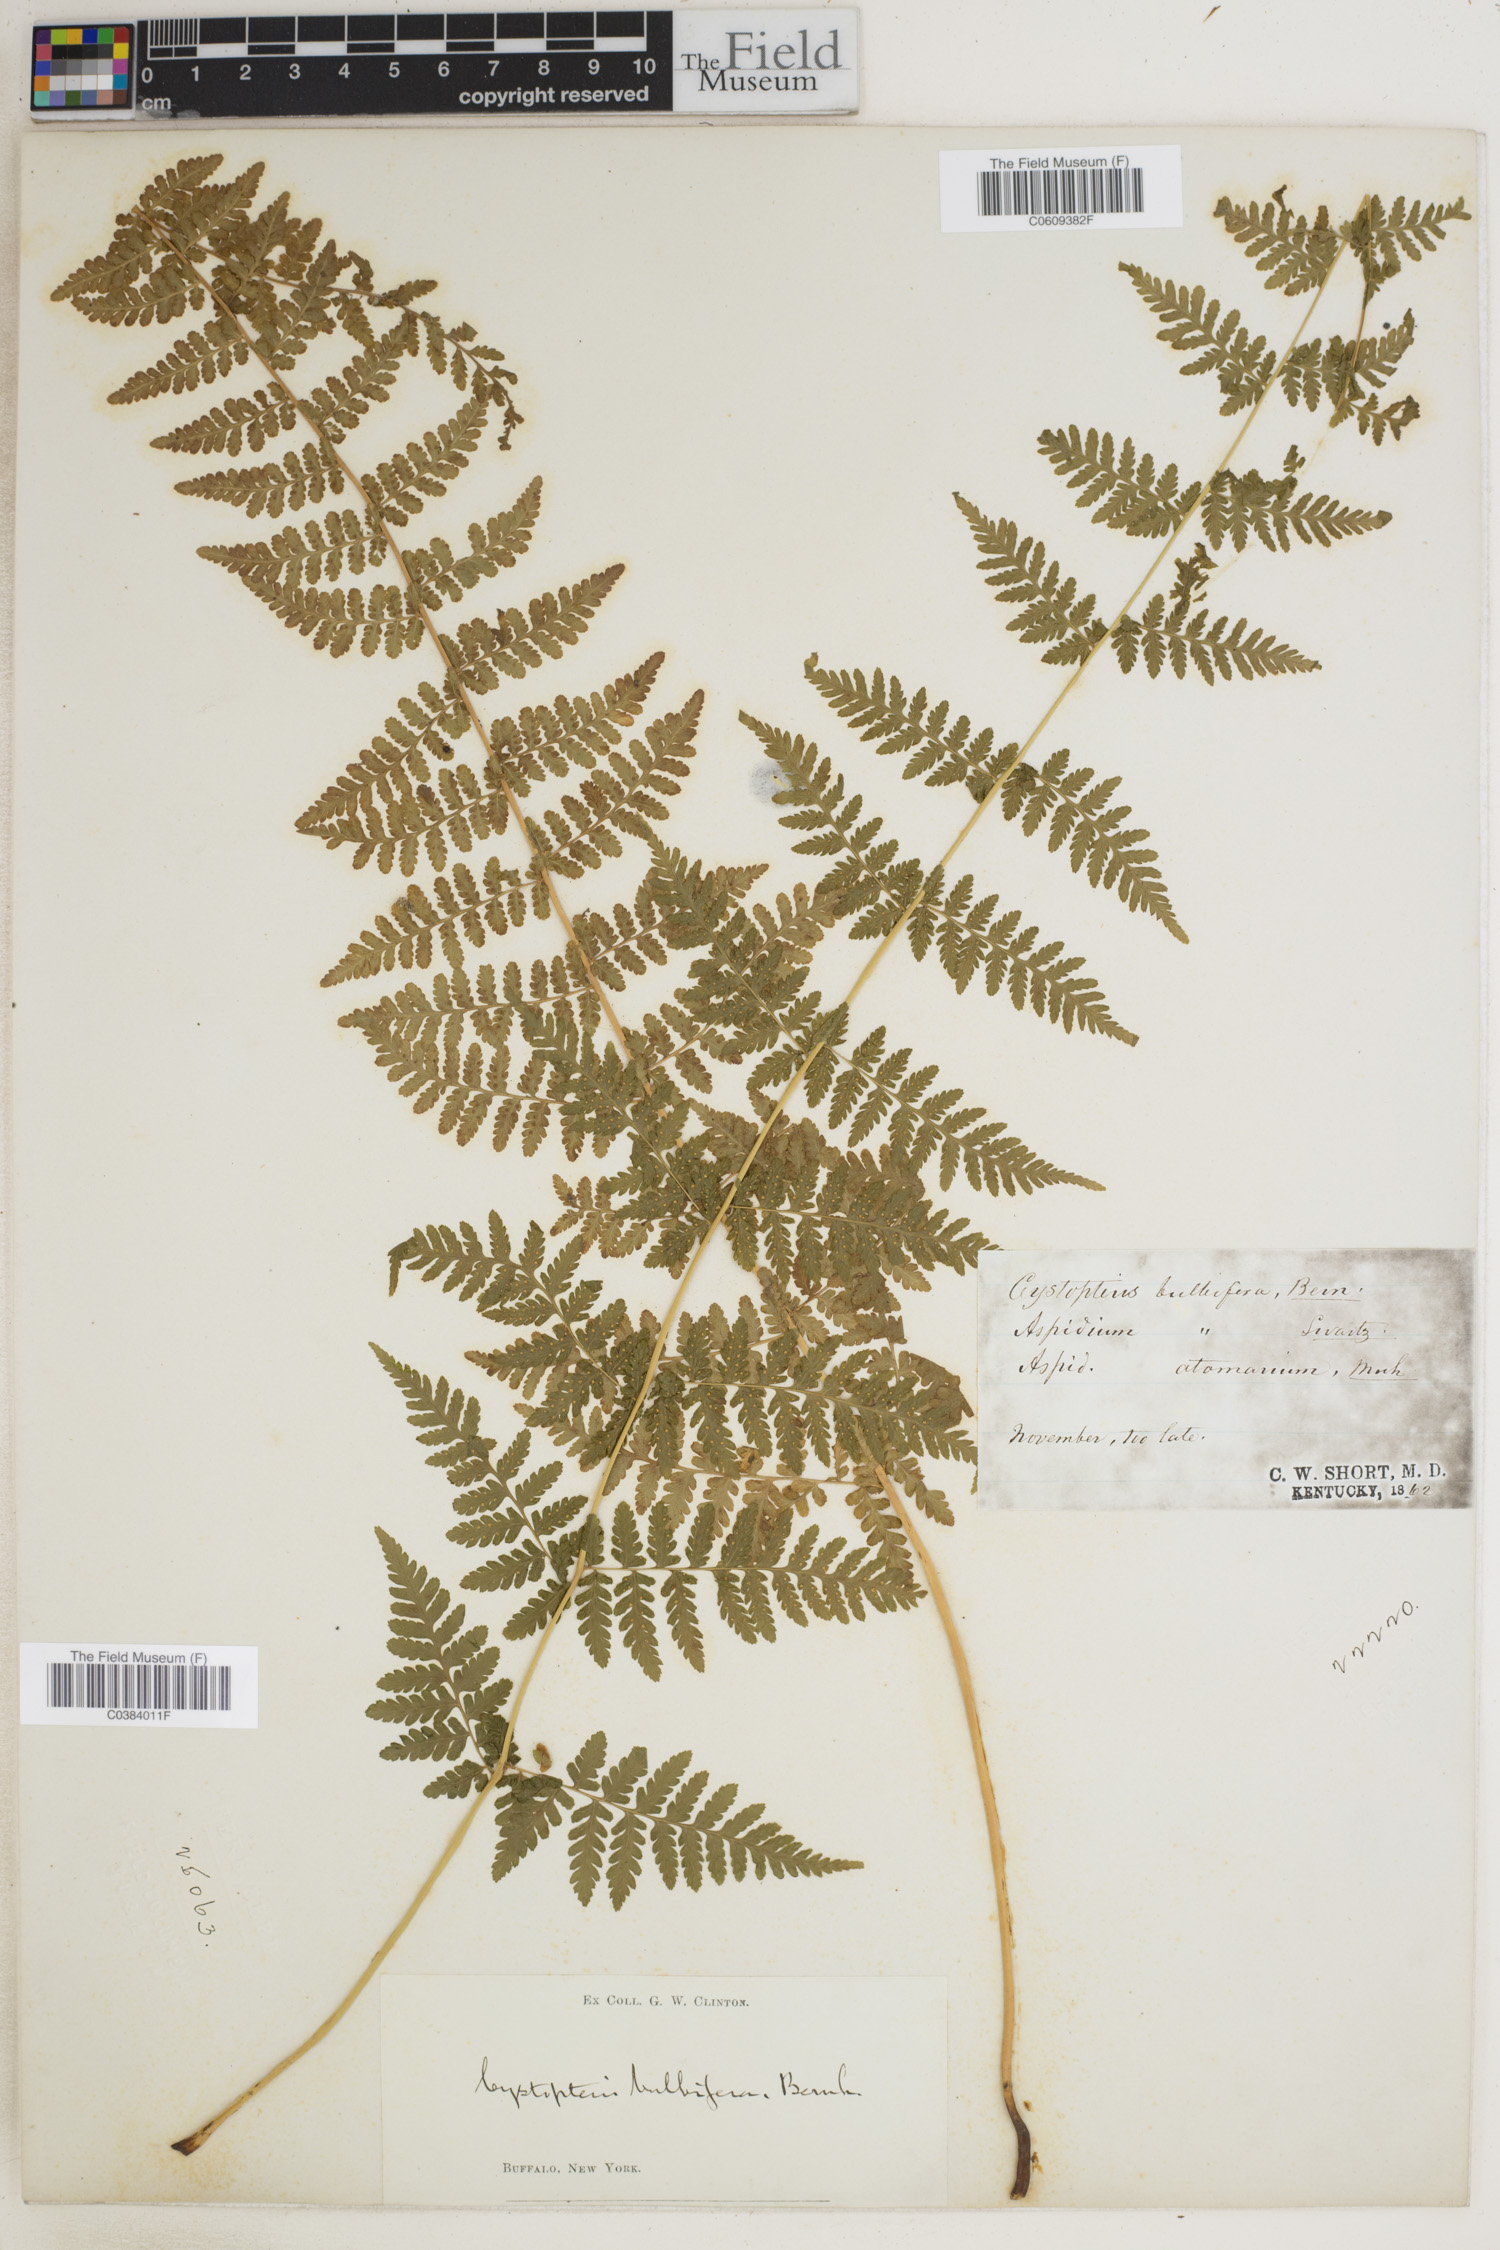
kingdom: Plantae
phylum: Tracheophyta
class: Polypodiopsida
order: Polypodiales
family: Cystopteridaceae
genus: Cystopteris
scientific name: Cystopteris bulbifera
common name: Bulblet bladder fern
